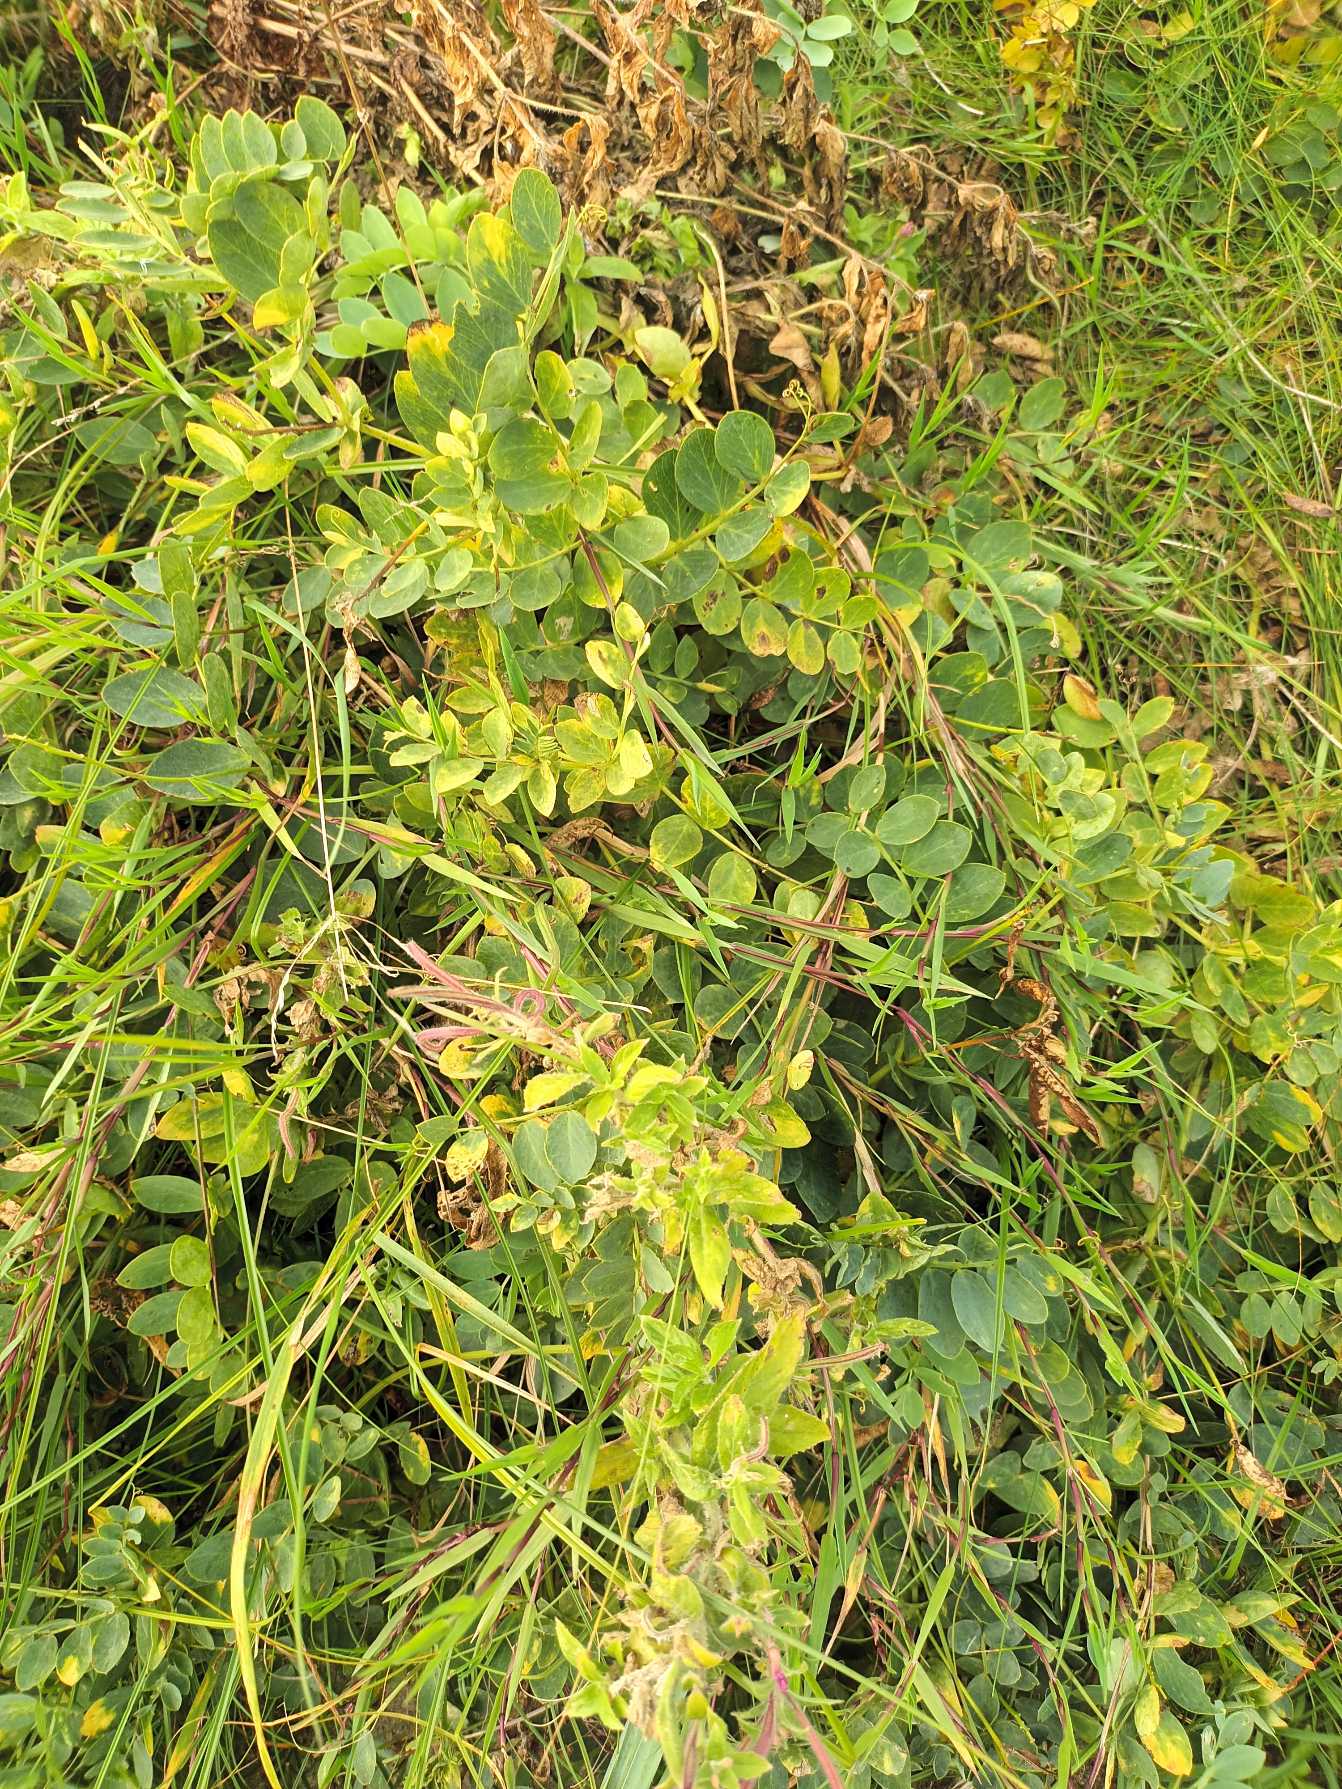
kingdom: Plantae
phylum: Tracheophyta
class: Magnoliopsida
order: Fabales
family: Fabaceae
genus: Lathyrus
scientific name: Lathyrus japonicus
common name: Strand-fladbælg
